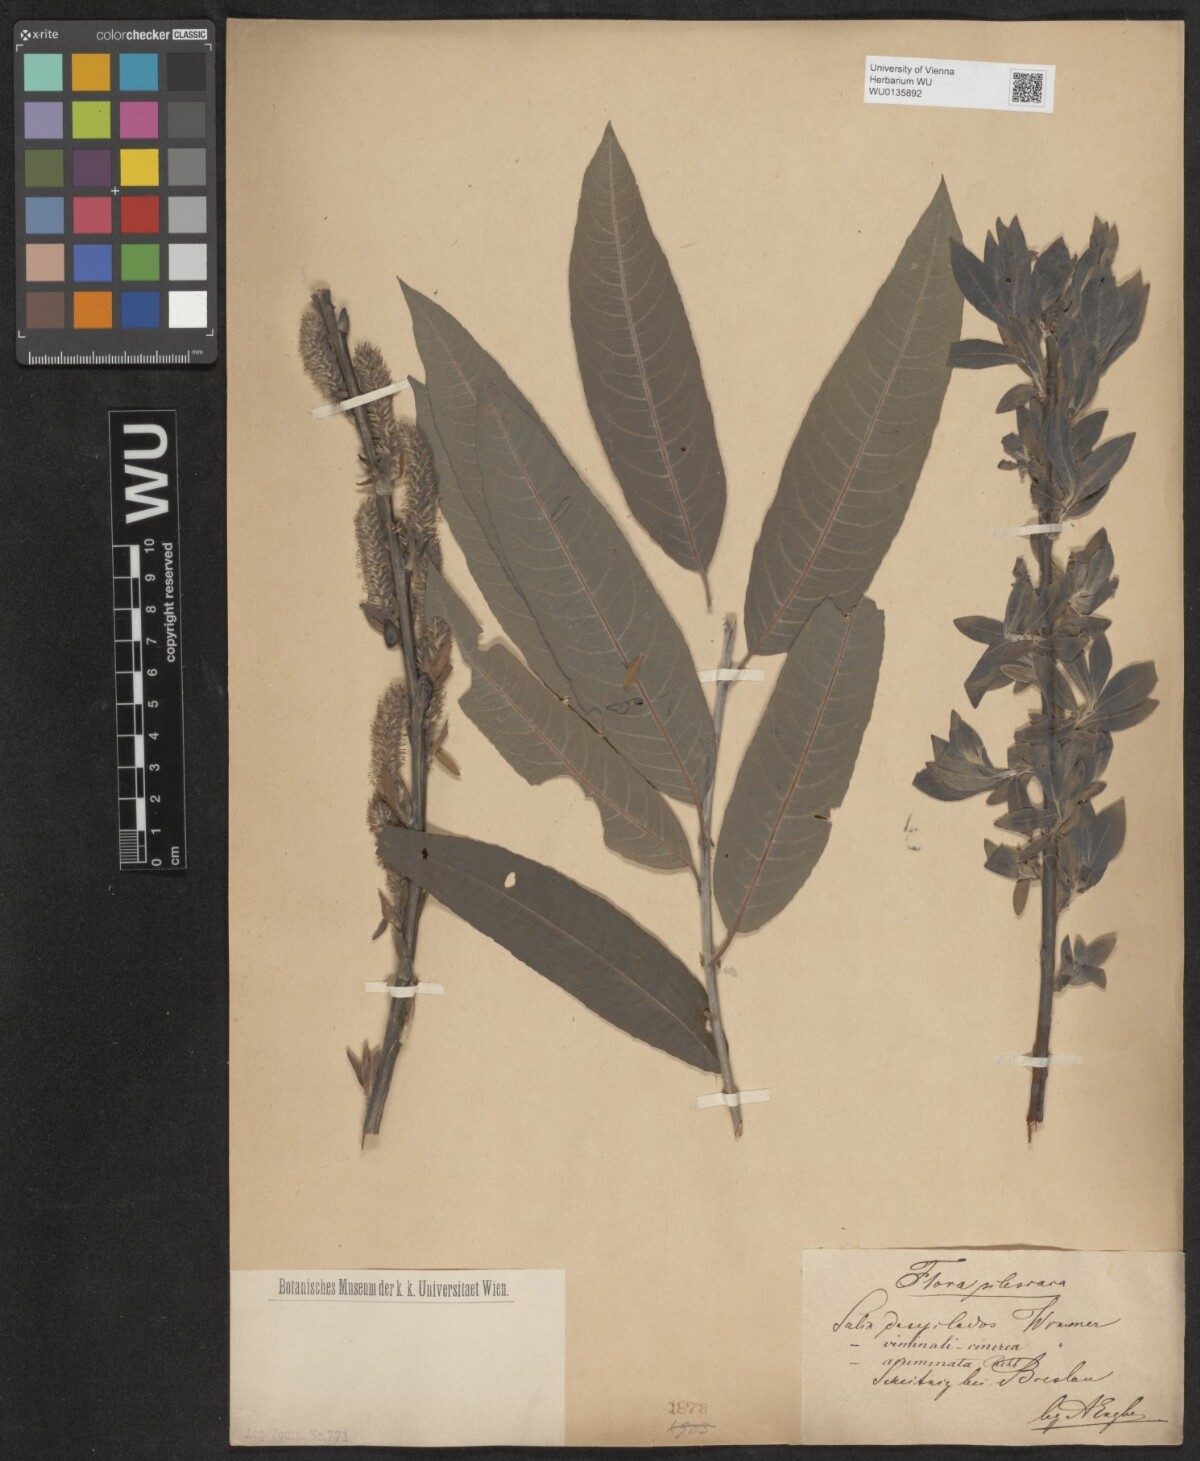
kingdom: Plantae
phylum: Tracheophyta
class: Magnoliopsida
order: Malpighiales
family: Salicaceae
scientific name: Salicaceae
